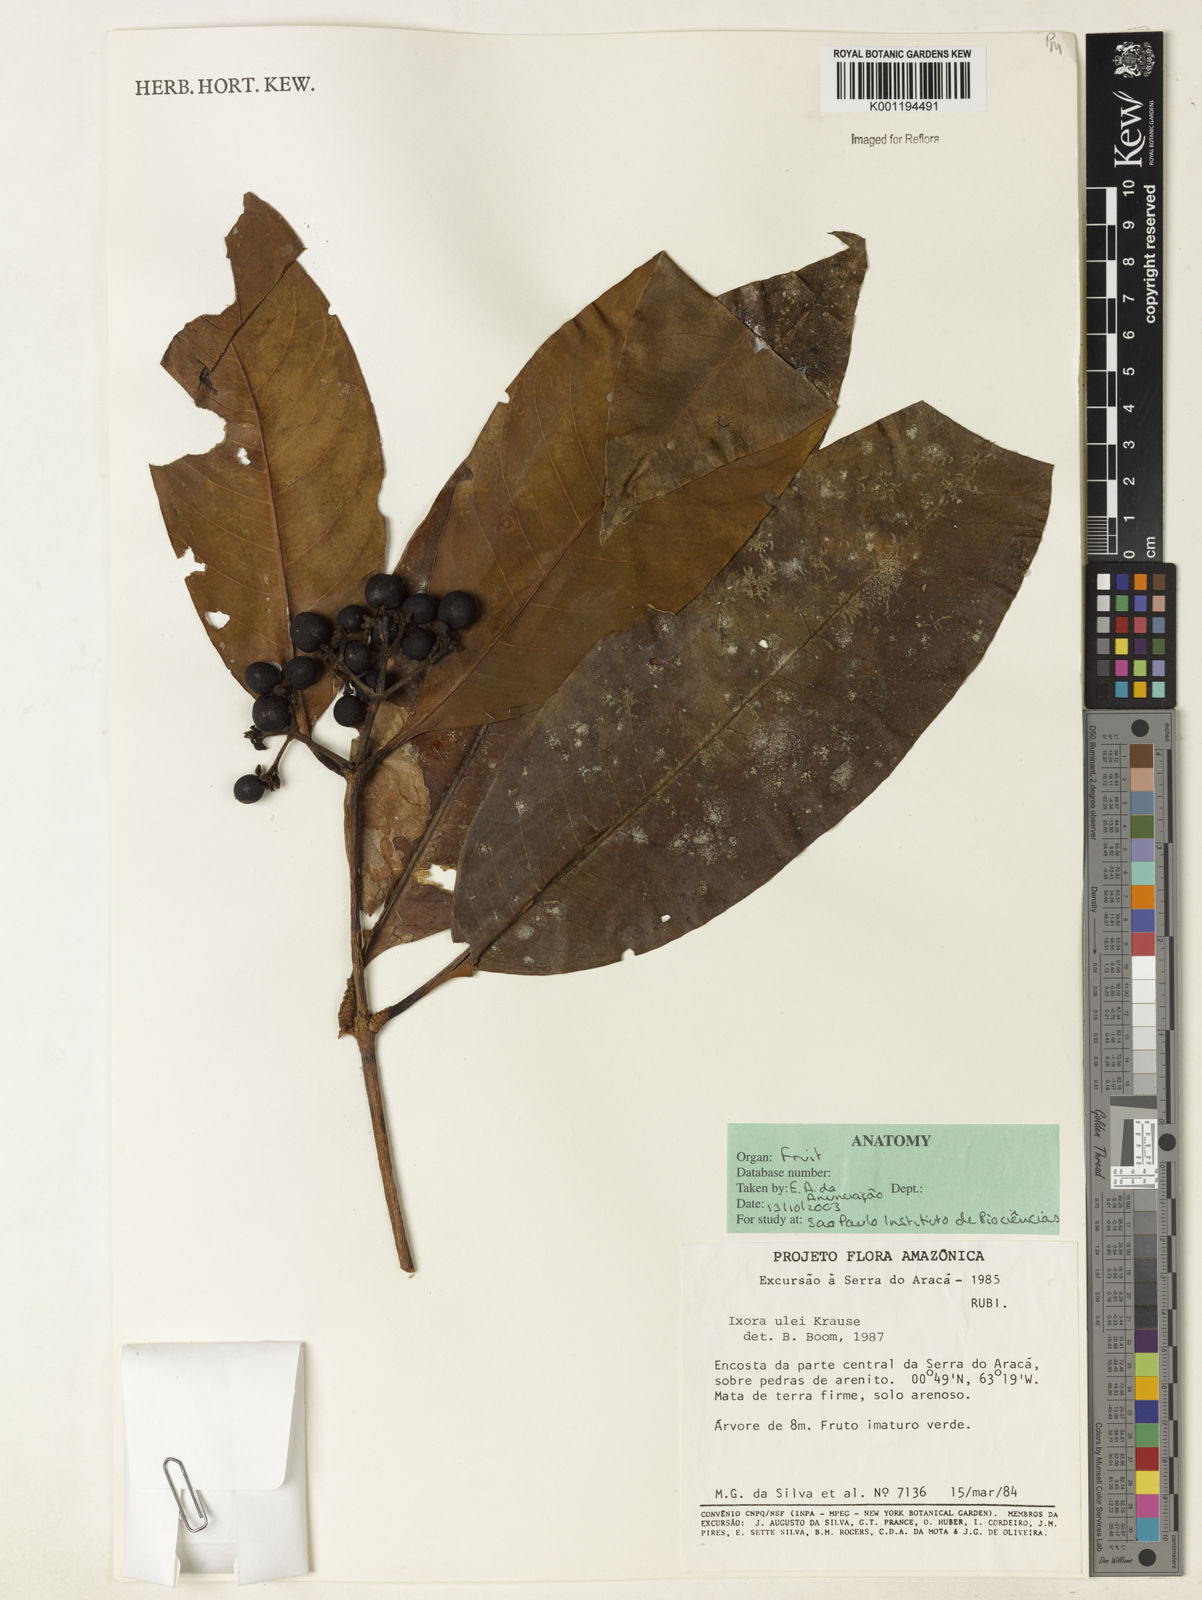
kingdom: Plantae
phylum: Tracheophyta
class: Magnoliopsida
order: Gentianales
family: Rubiaceae
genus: Ixora
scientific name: Ixora sparsifolia
